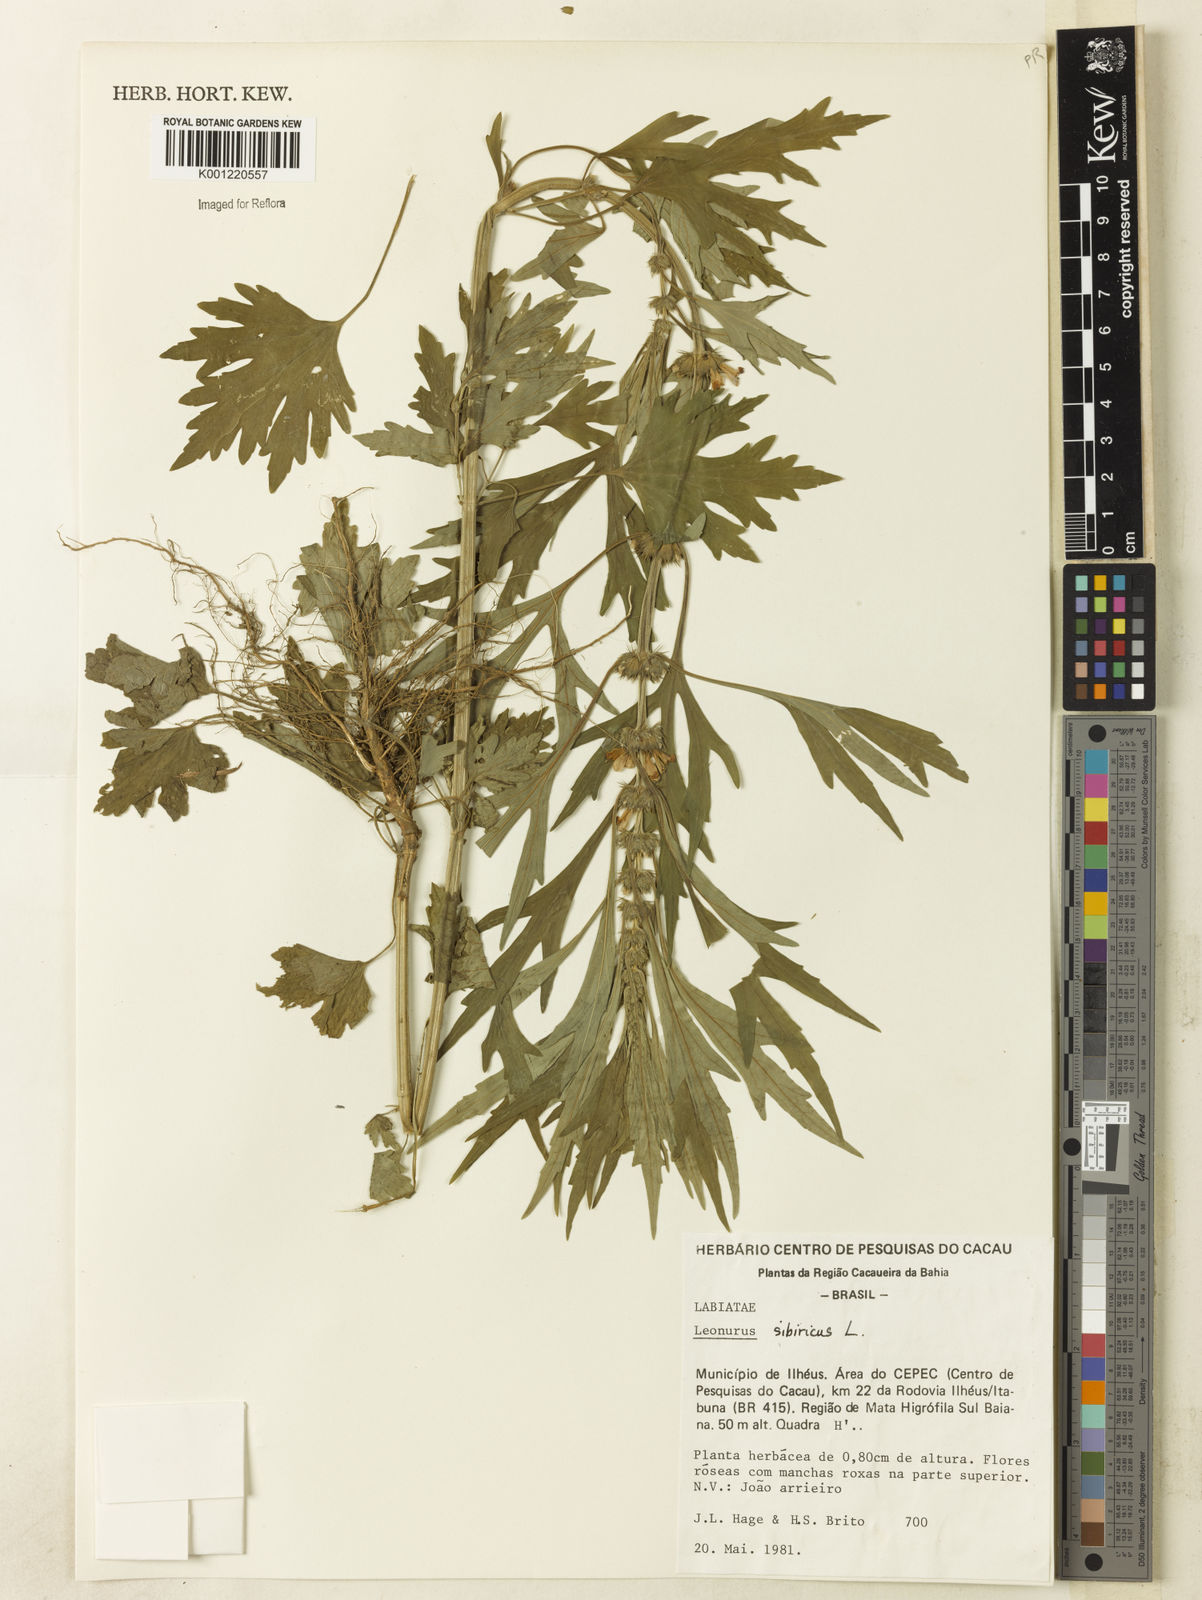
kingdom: Plantae
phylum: Tracheophyta
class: Magnoliopsida
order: Lamiales
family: Lamiaceae
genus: Leonurus
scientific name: Leonurus japonicus
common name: Honeyweed
